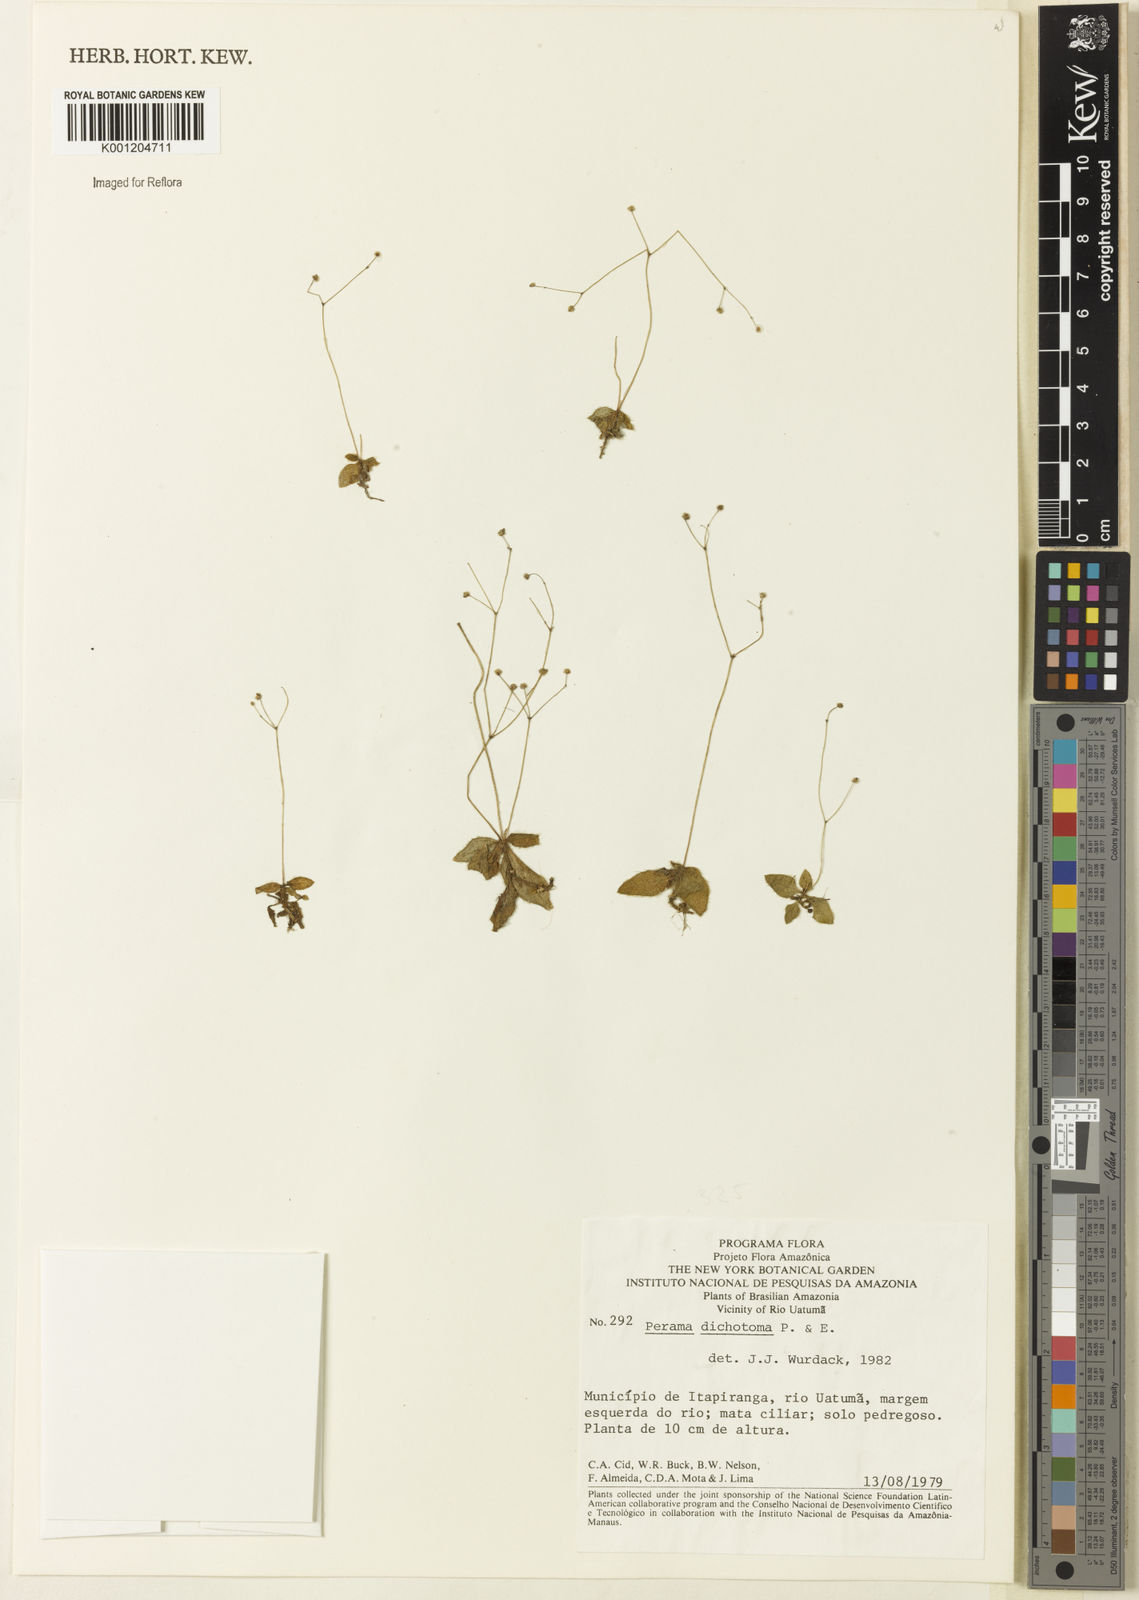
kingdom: Plantae
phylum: Tracheophyta
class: Magnoliopsida
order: Gentianales
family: Rubiaceae
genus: Perama
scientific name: Perama dichotoma
